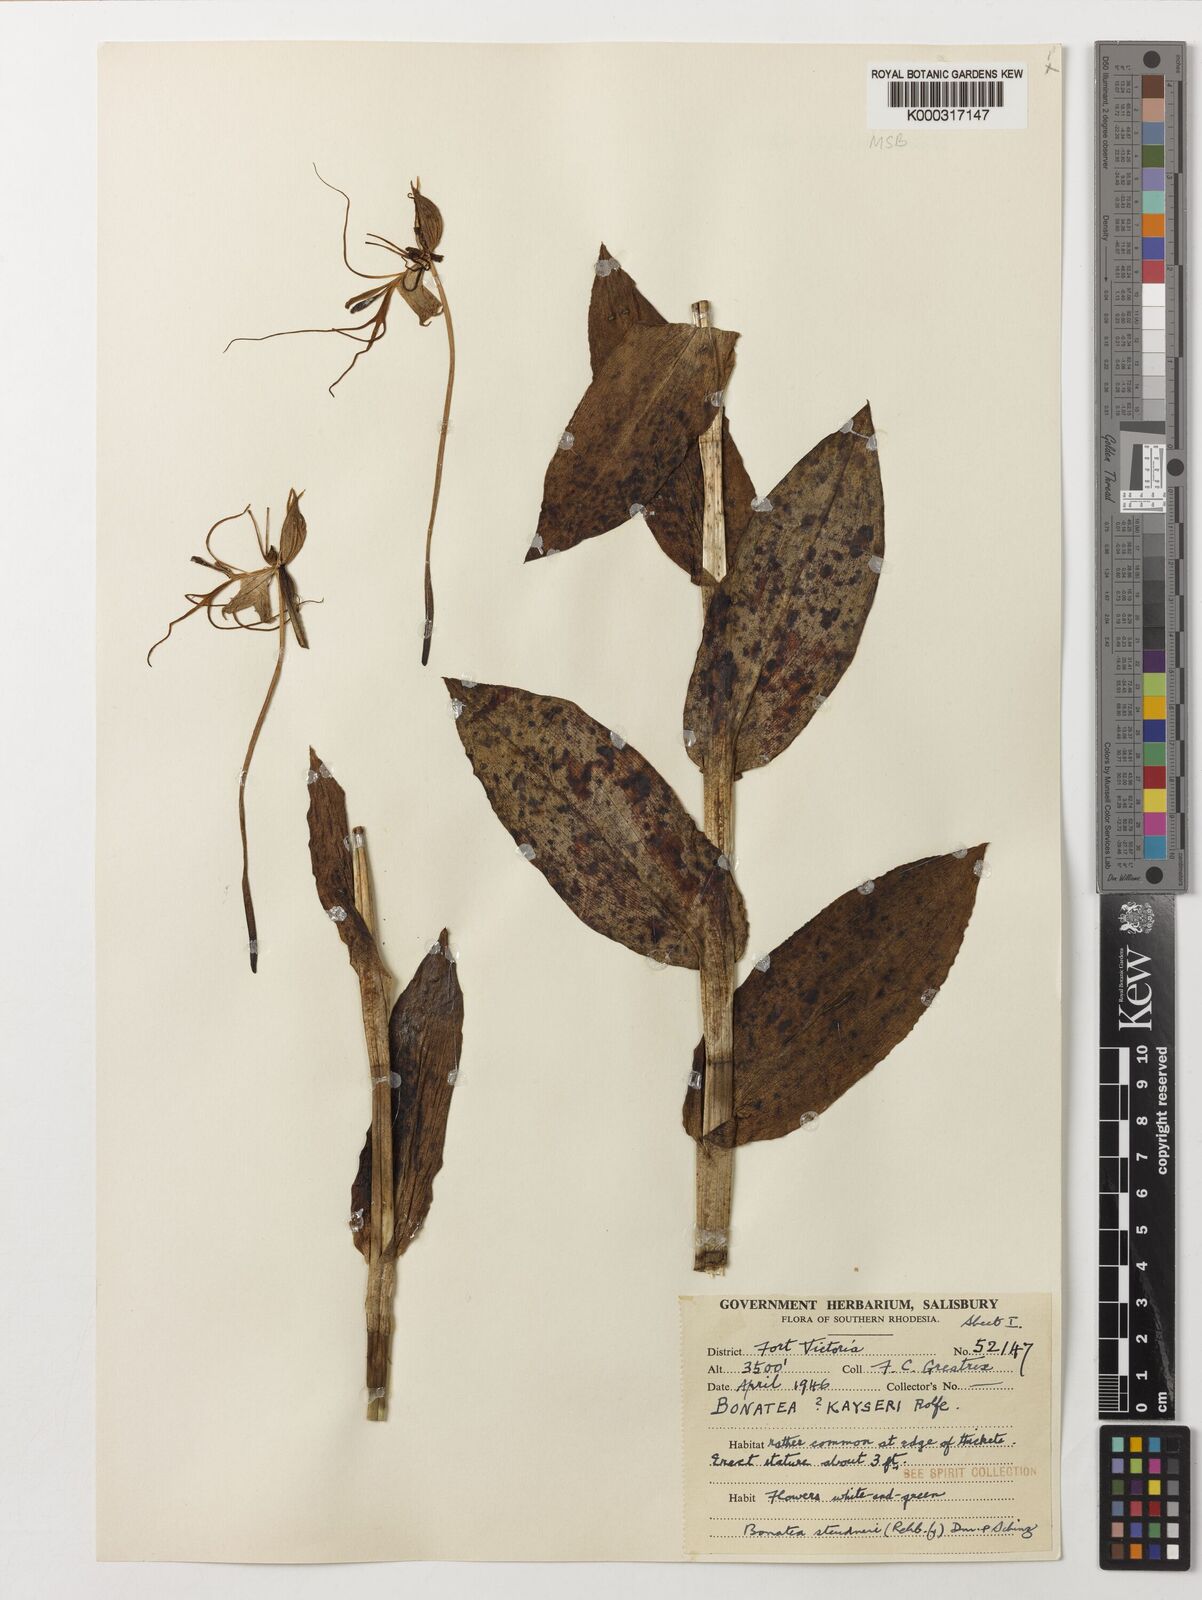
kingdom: Plantae
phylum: Tracheophyta
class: Liliopsida
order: Asparagales
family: Orchidaceae
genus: Bonatea
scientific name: Bonatea steudneri
